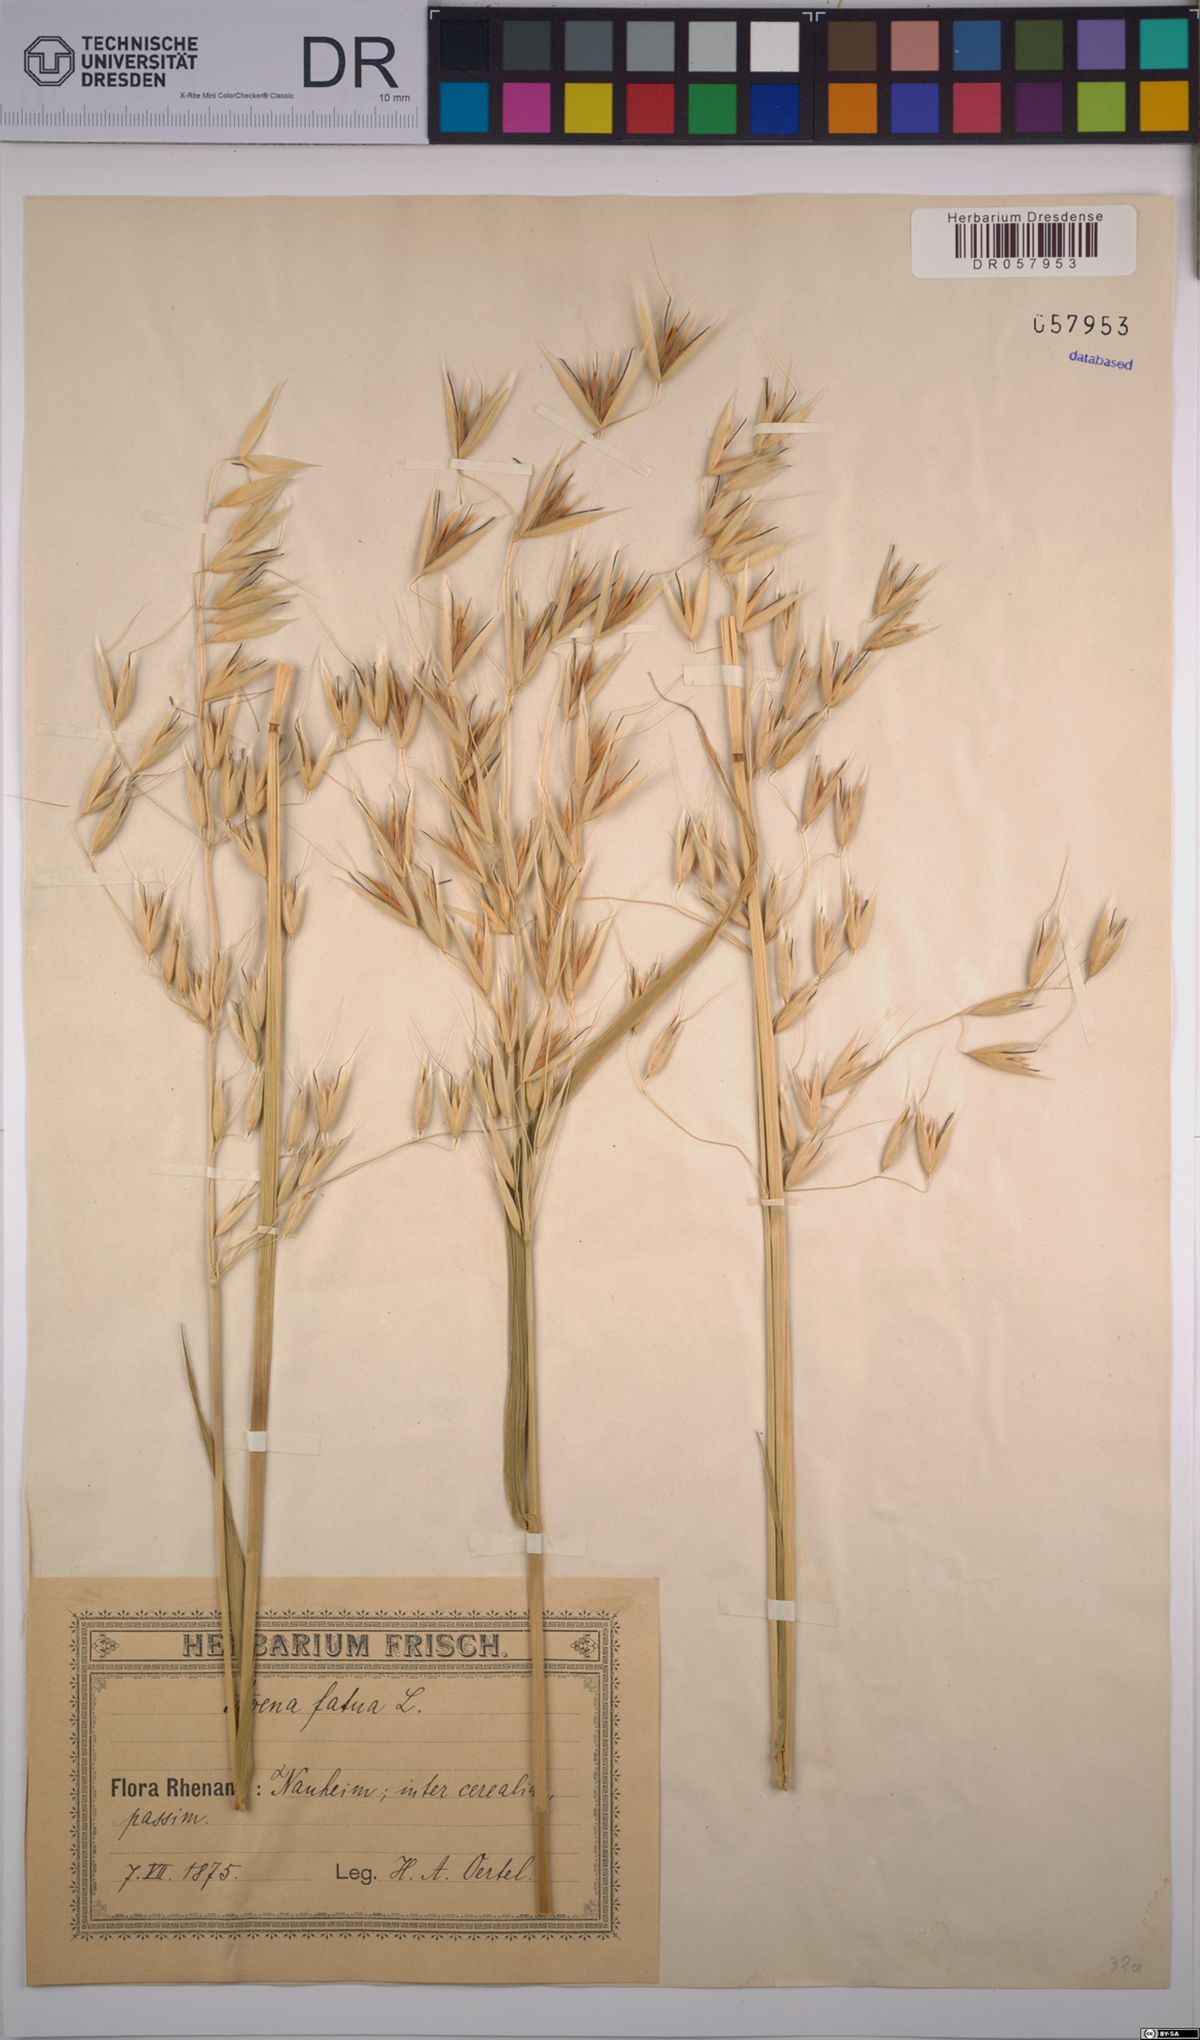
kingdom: Plantae
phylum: Tracheophyta
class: Liliopsida
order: Poales
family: Poaceae
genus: Avena
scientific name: Avena fatua
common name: Wild oat
